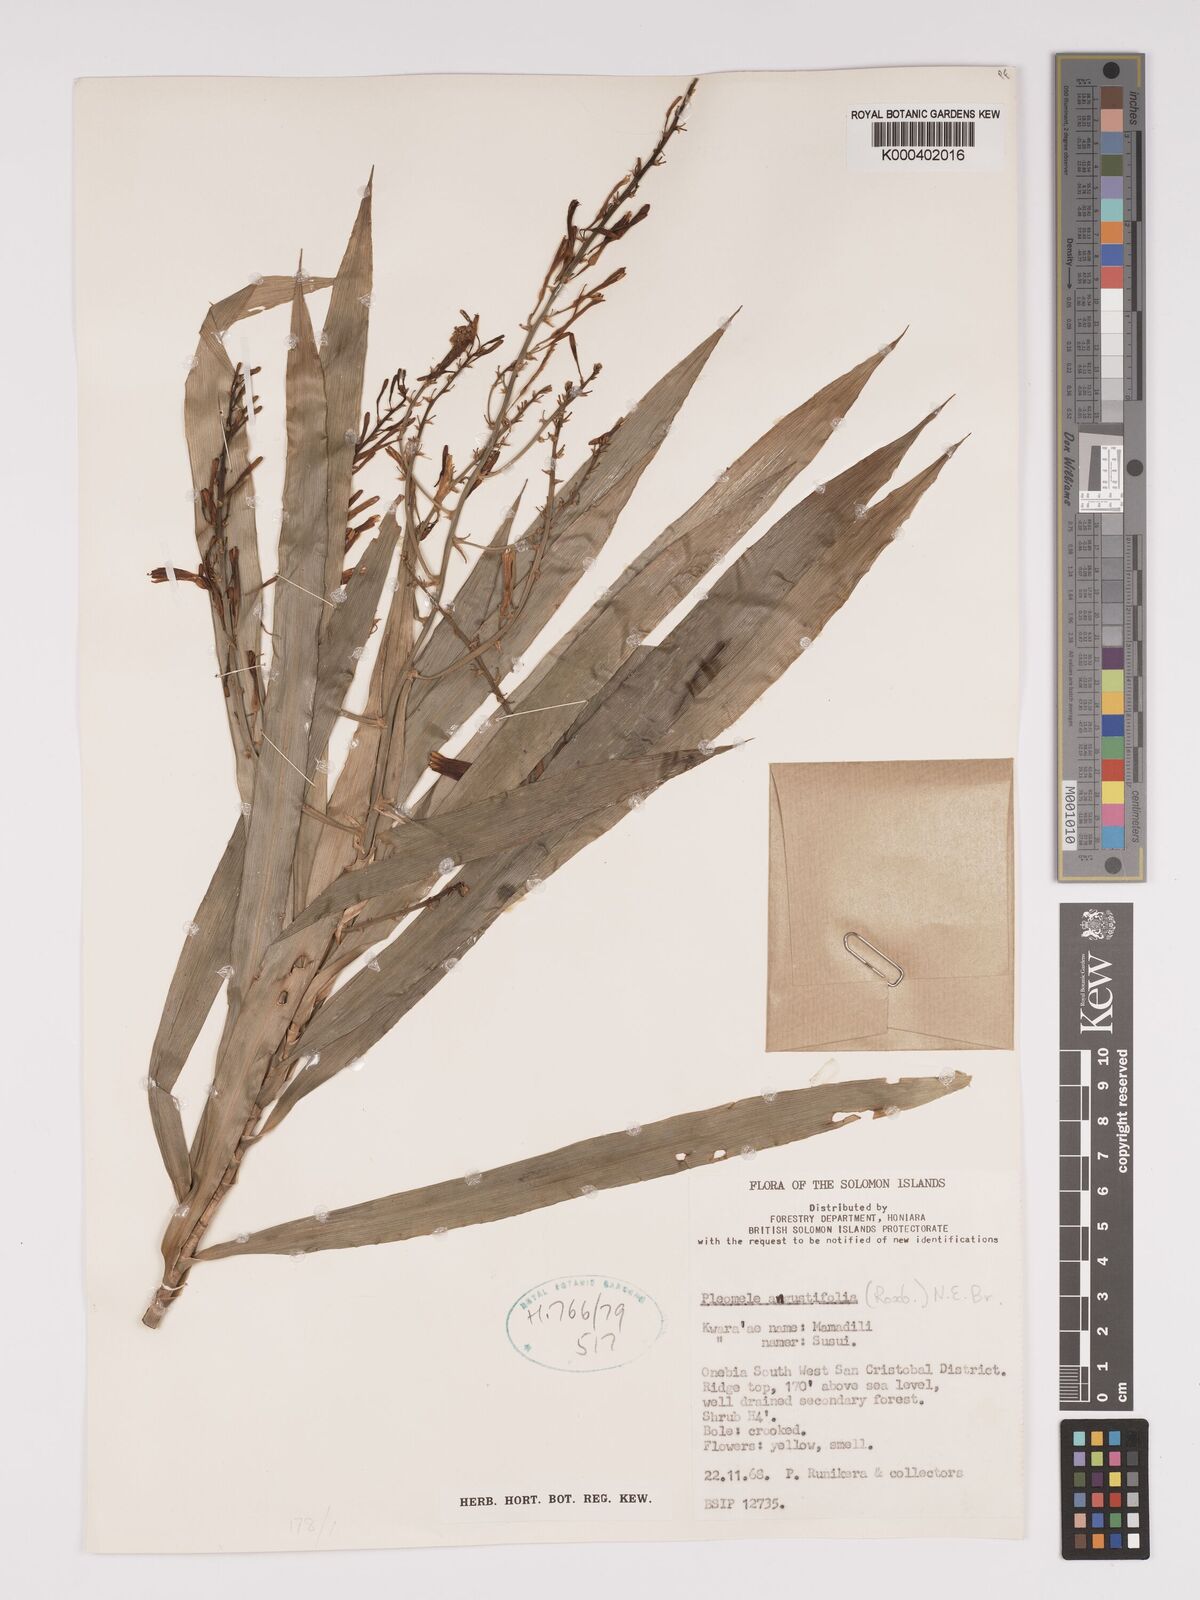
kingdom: Plantae
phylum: Tracheophyta
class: Liliopsida
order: Asparagales
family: Asparagaceae
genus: Dracaena
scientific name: Dracaena angustifolia
